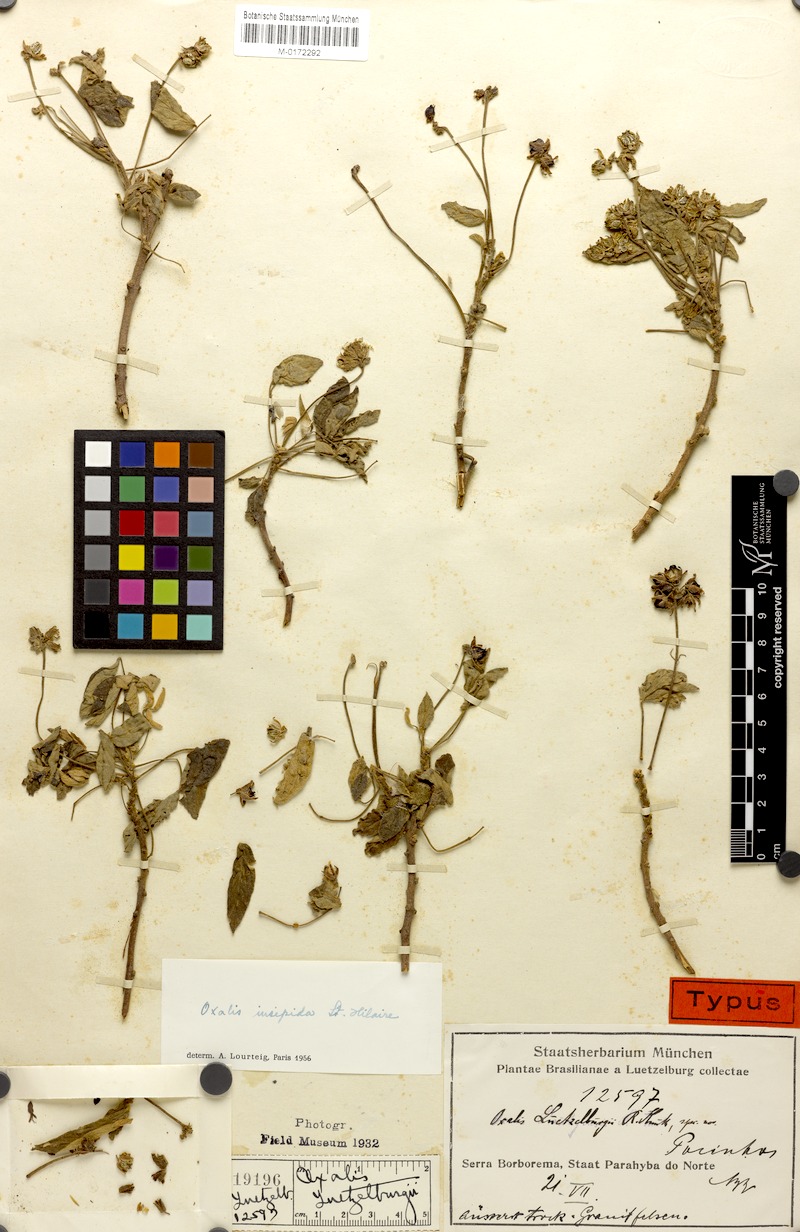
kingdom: Plantae
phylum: Tracheophyta
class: Magnoliopsida
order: Oxalidales
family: Oxalidaceae
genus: Oxalis
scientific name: Oxalis psoraleoides
